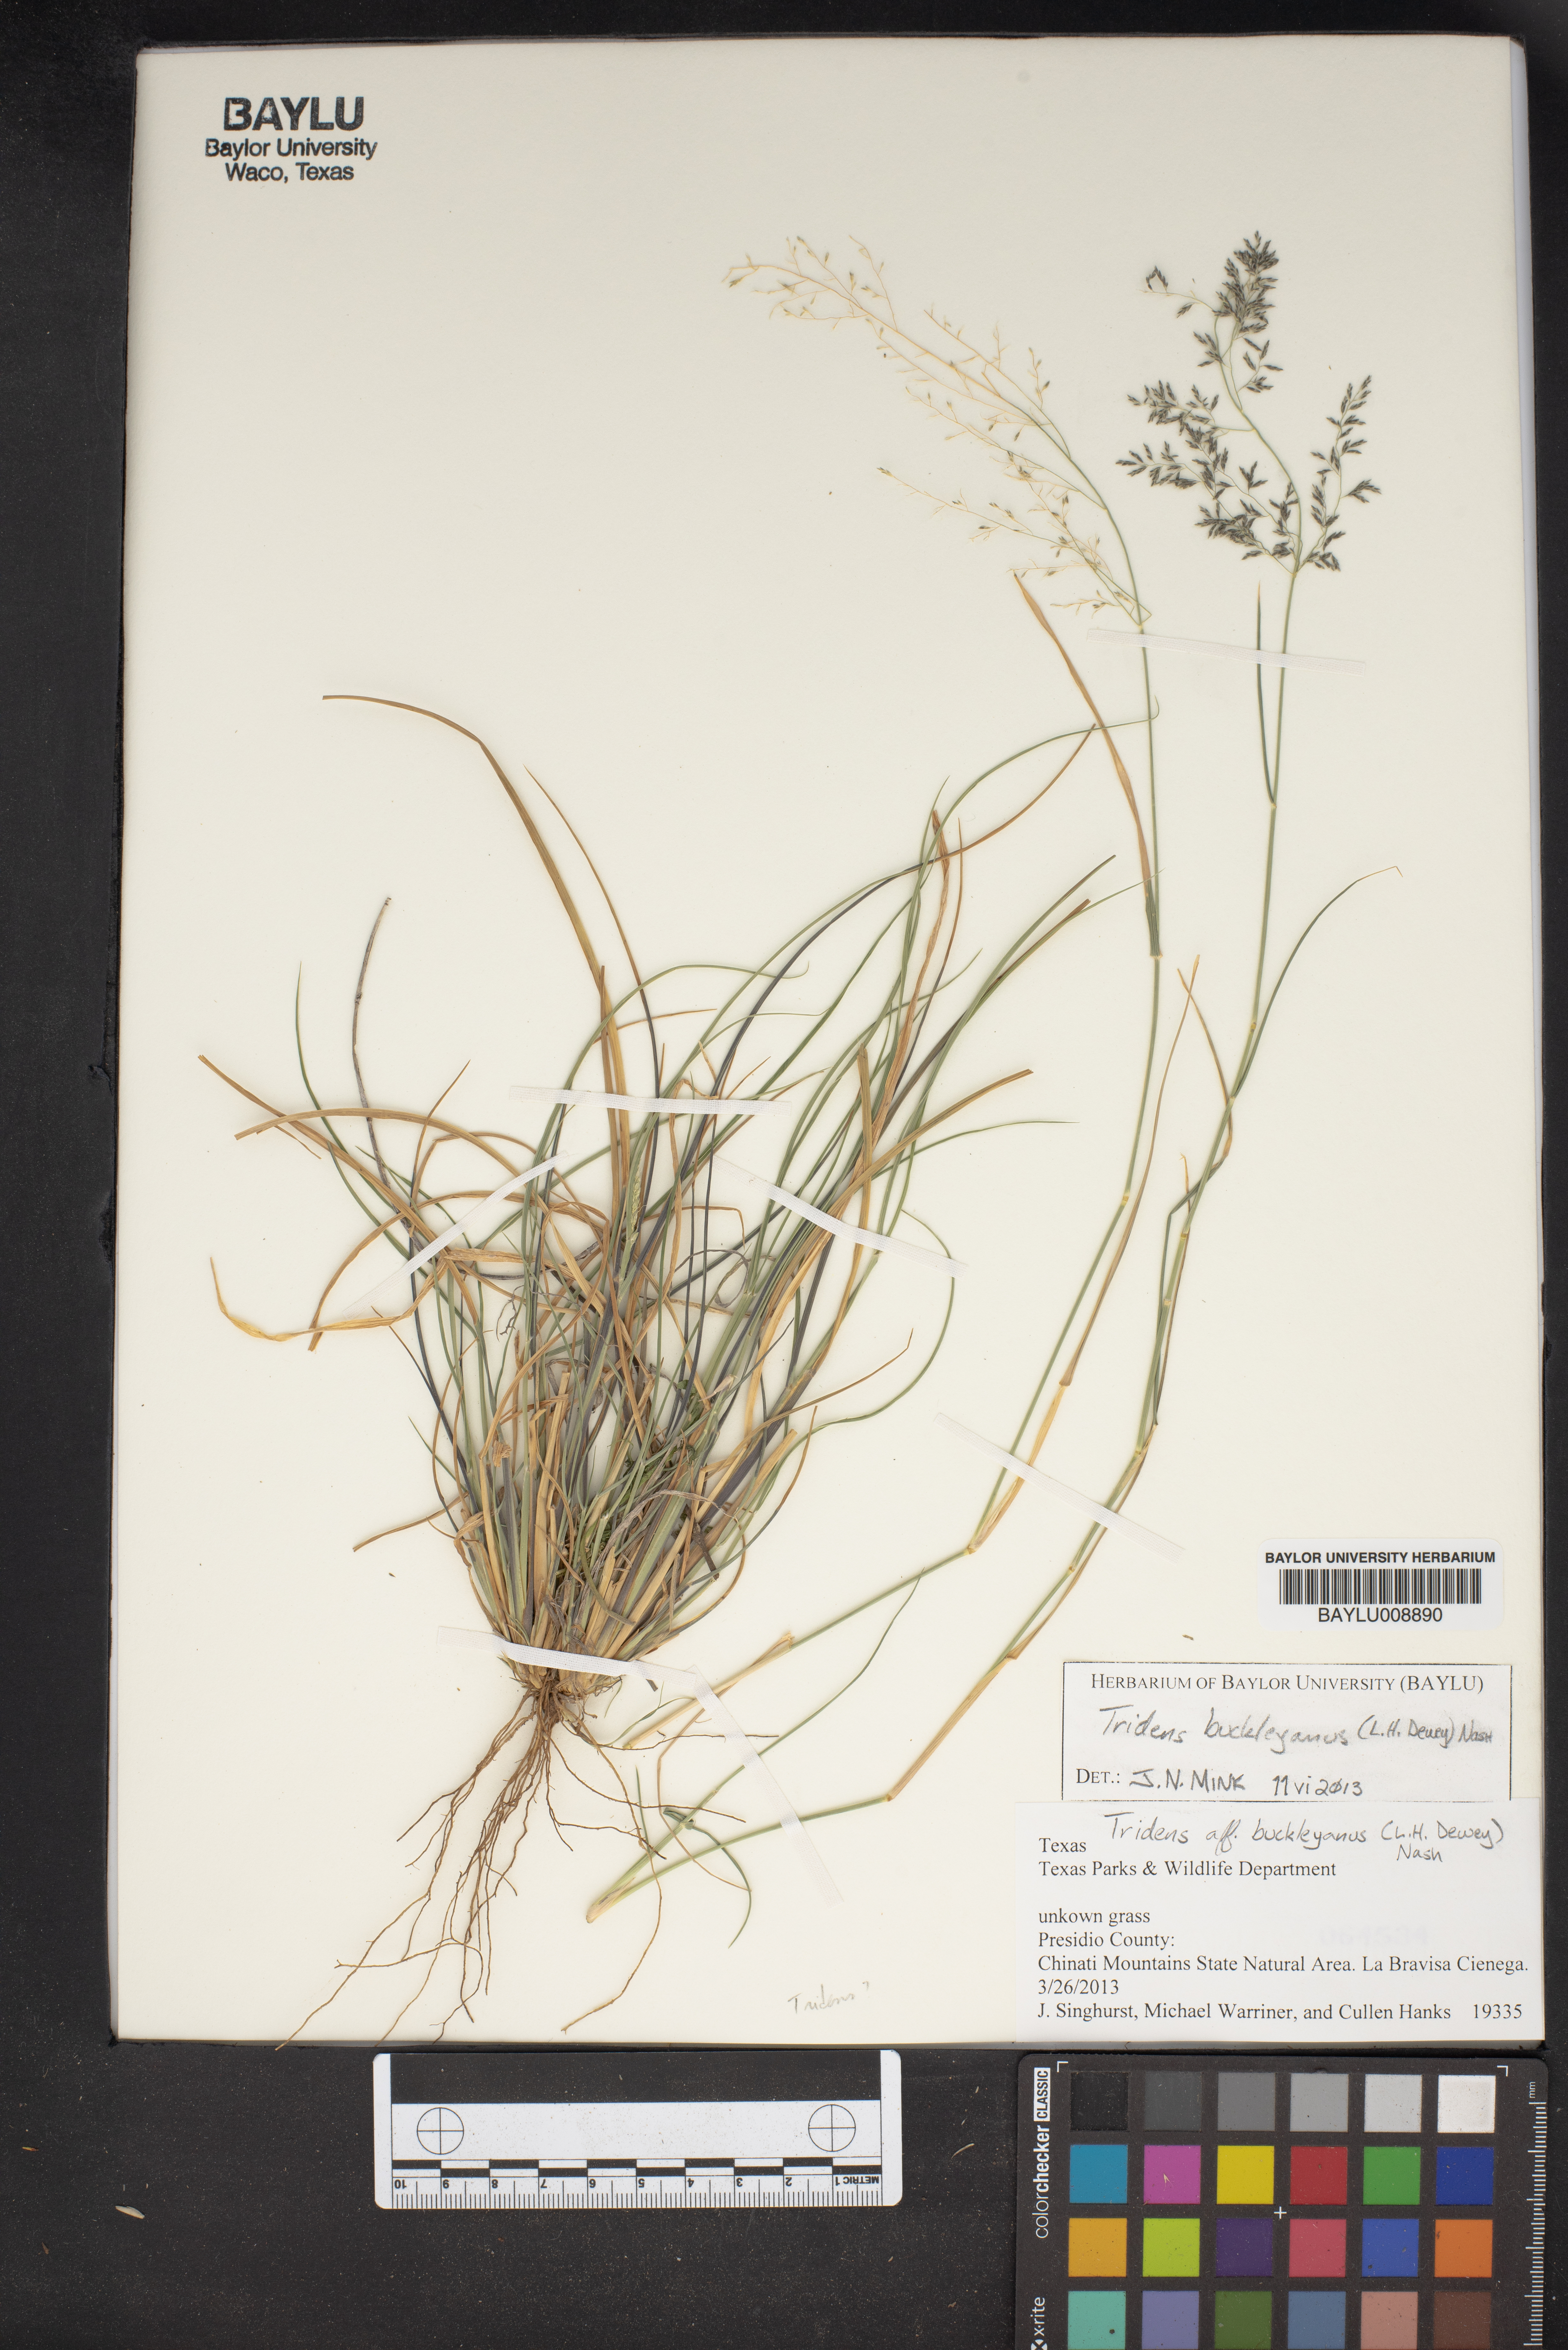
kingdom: Plantae
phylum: Tracheophyta
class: Liliopsida
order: Poales
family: Poaceae
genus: Tridentopsis
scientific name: Tridentopsis buckleyana
